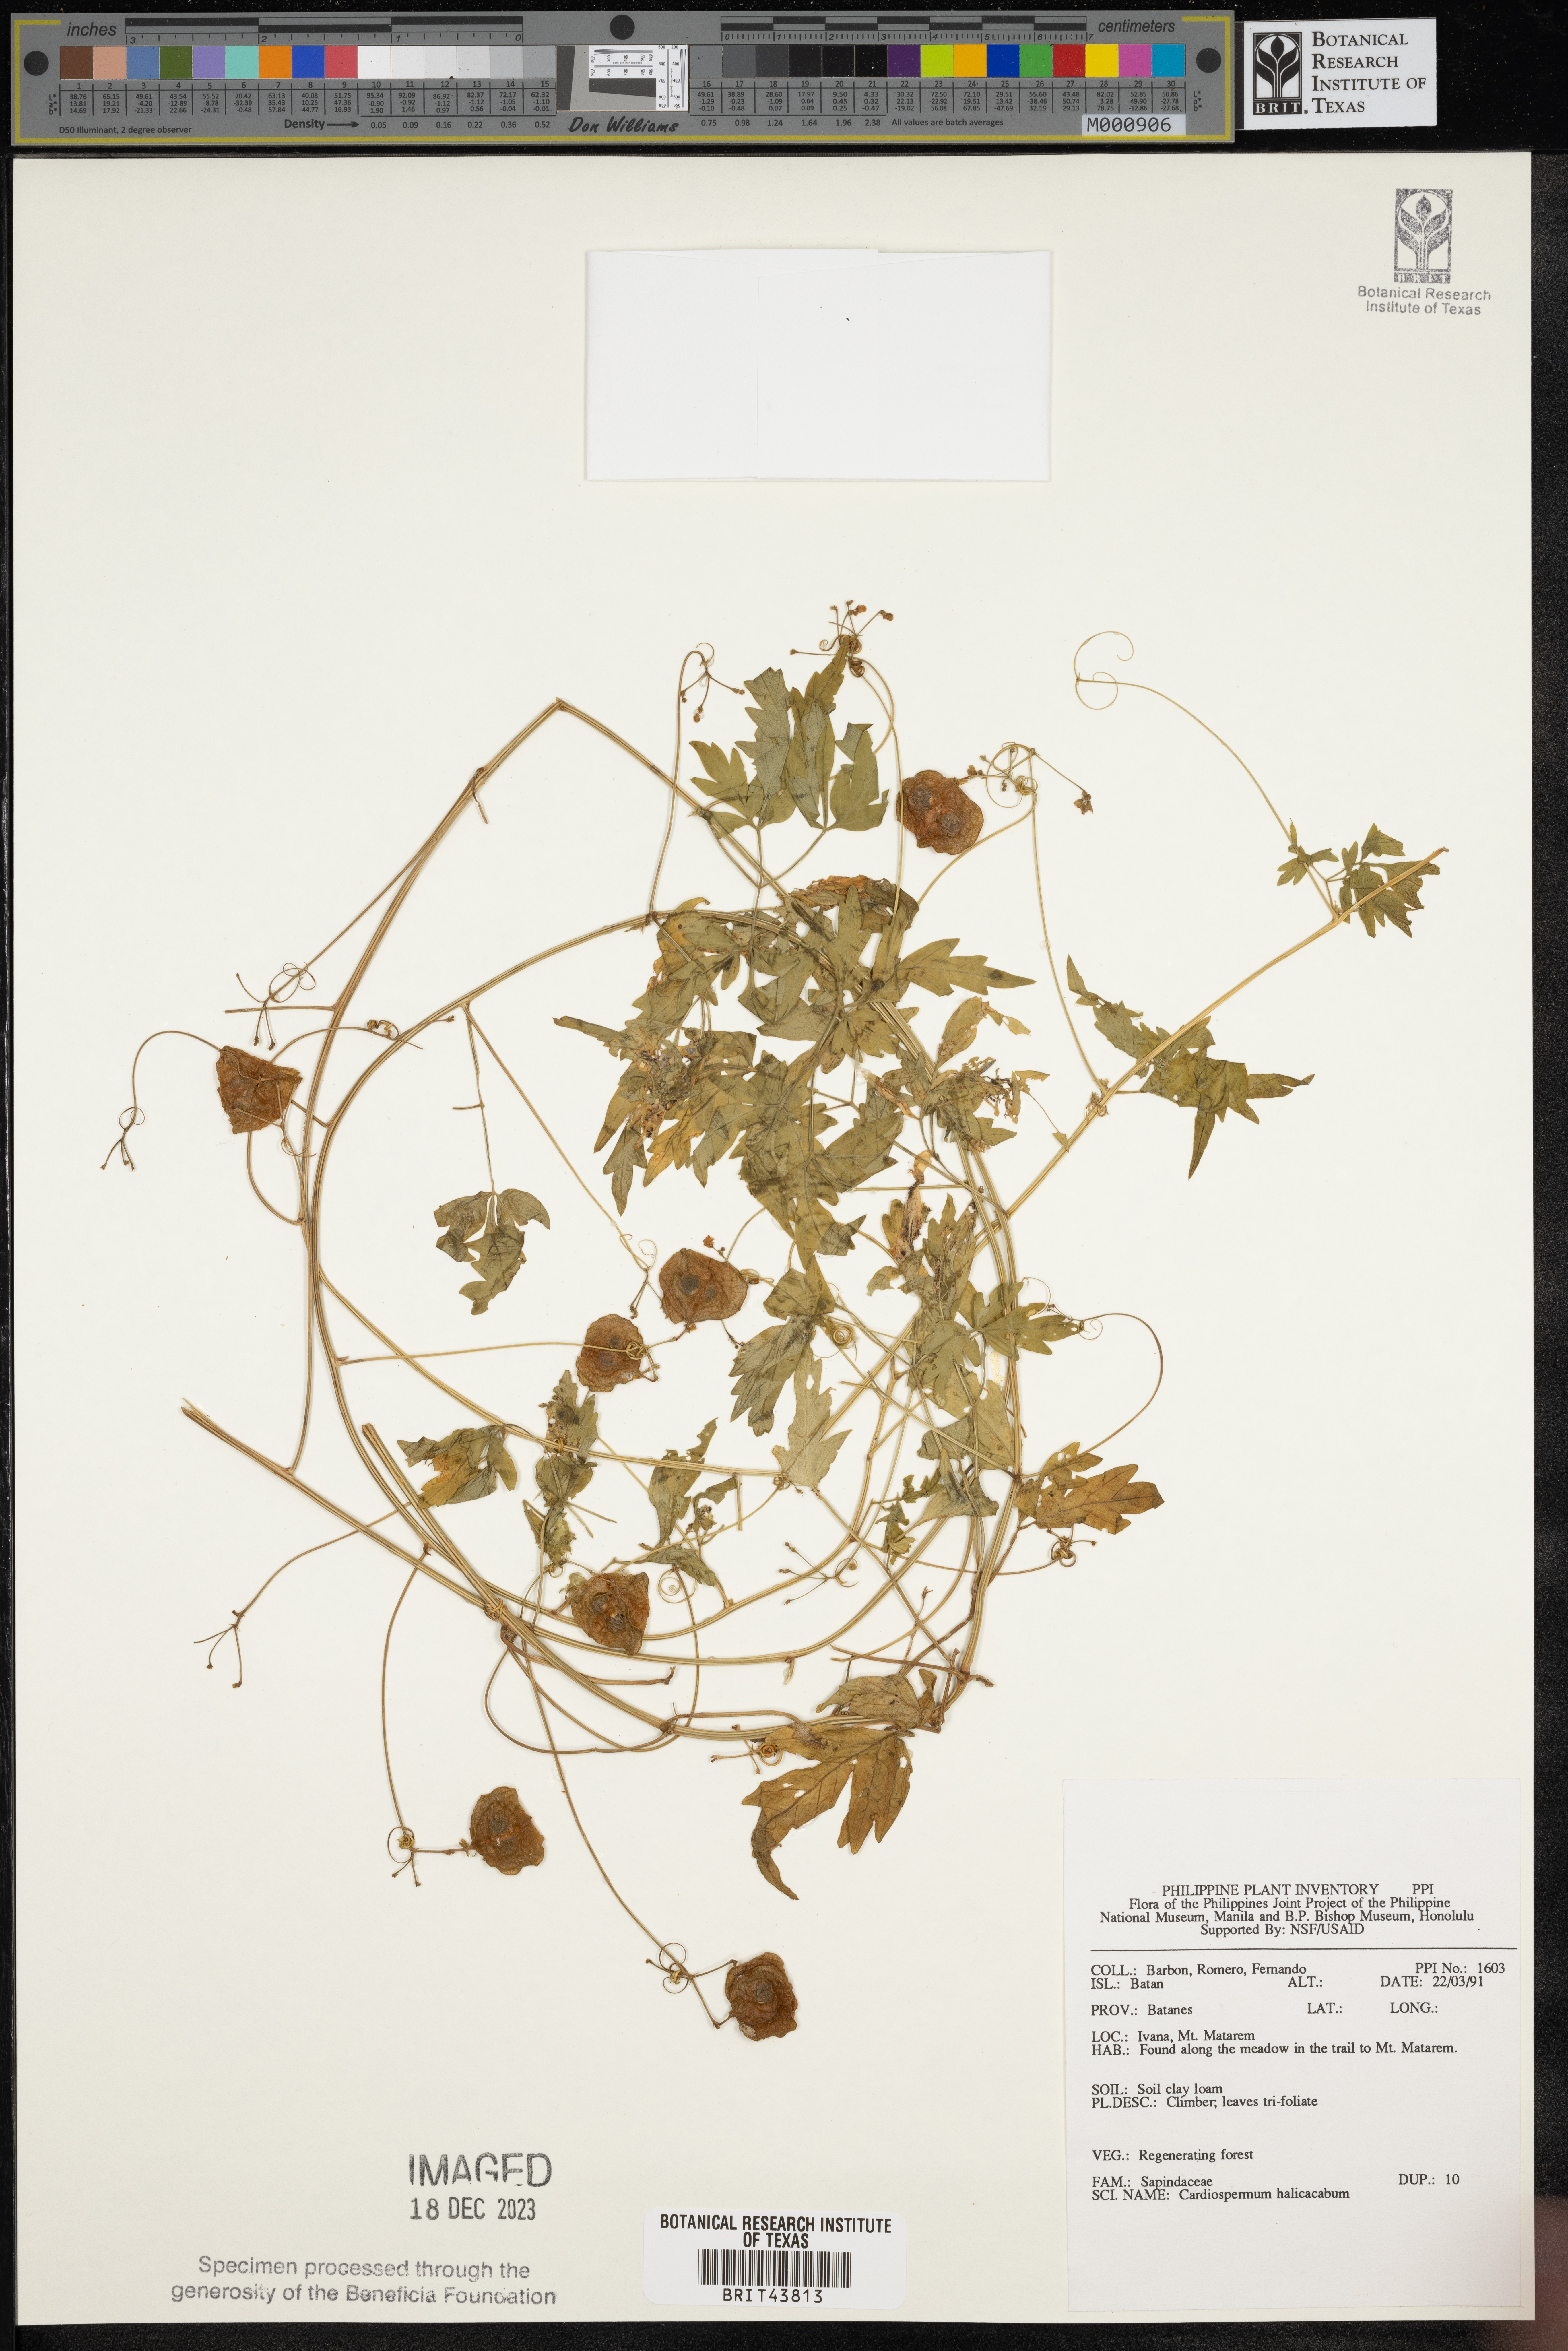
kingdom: Plantae
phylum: Tracheophyta
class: Magnoliopsida
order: Sapindales
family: Sapindaceae
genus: Cardiospermum
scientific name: Cardiospermum halicacabum
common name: Balloon vine
